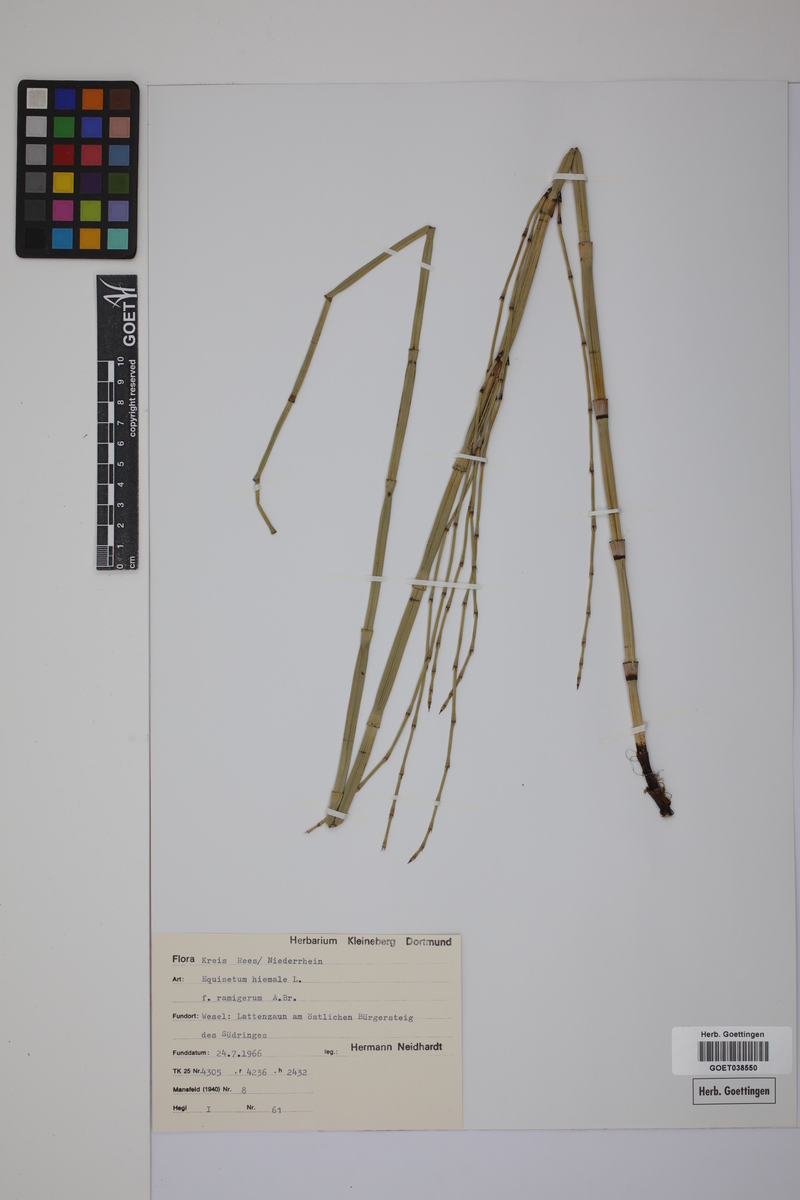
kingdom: Plantae
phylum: Tracheophyta
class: Polypodiopsida
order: Equisetales
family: Equisetaceae
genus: Equisetum
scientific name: Equisetum hyemale
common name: Rough horsetail
